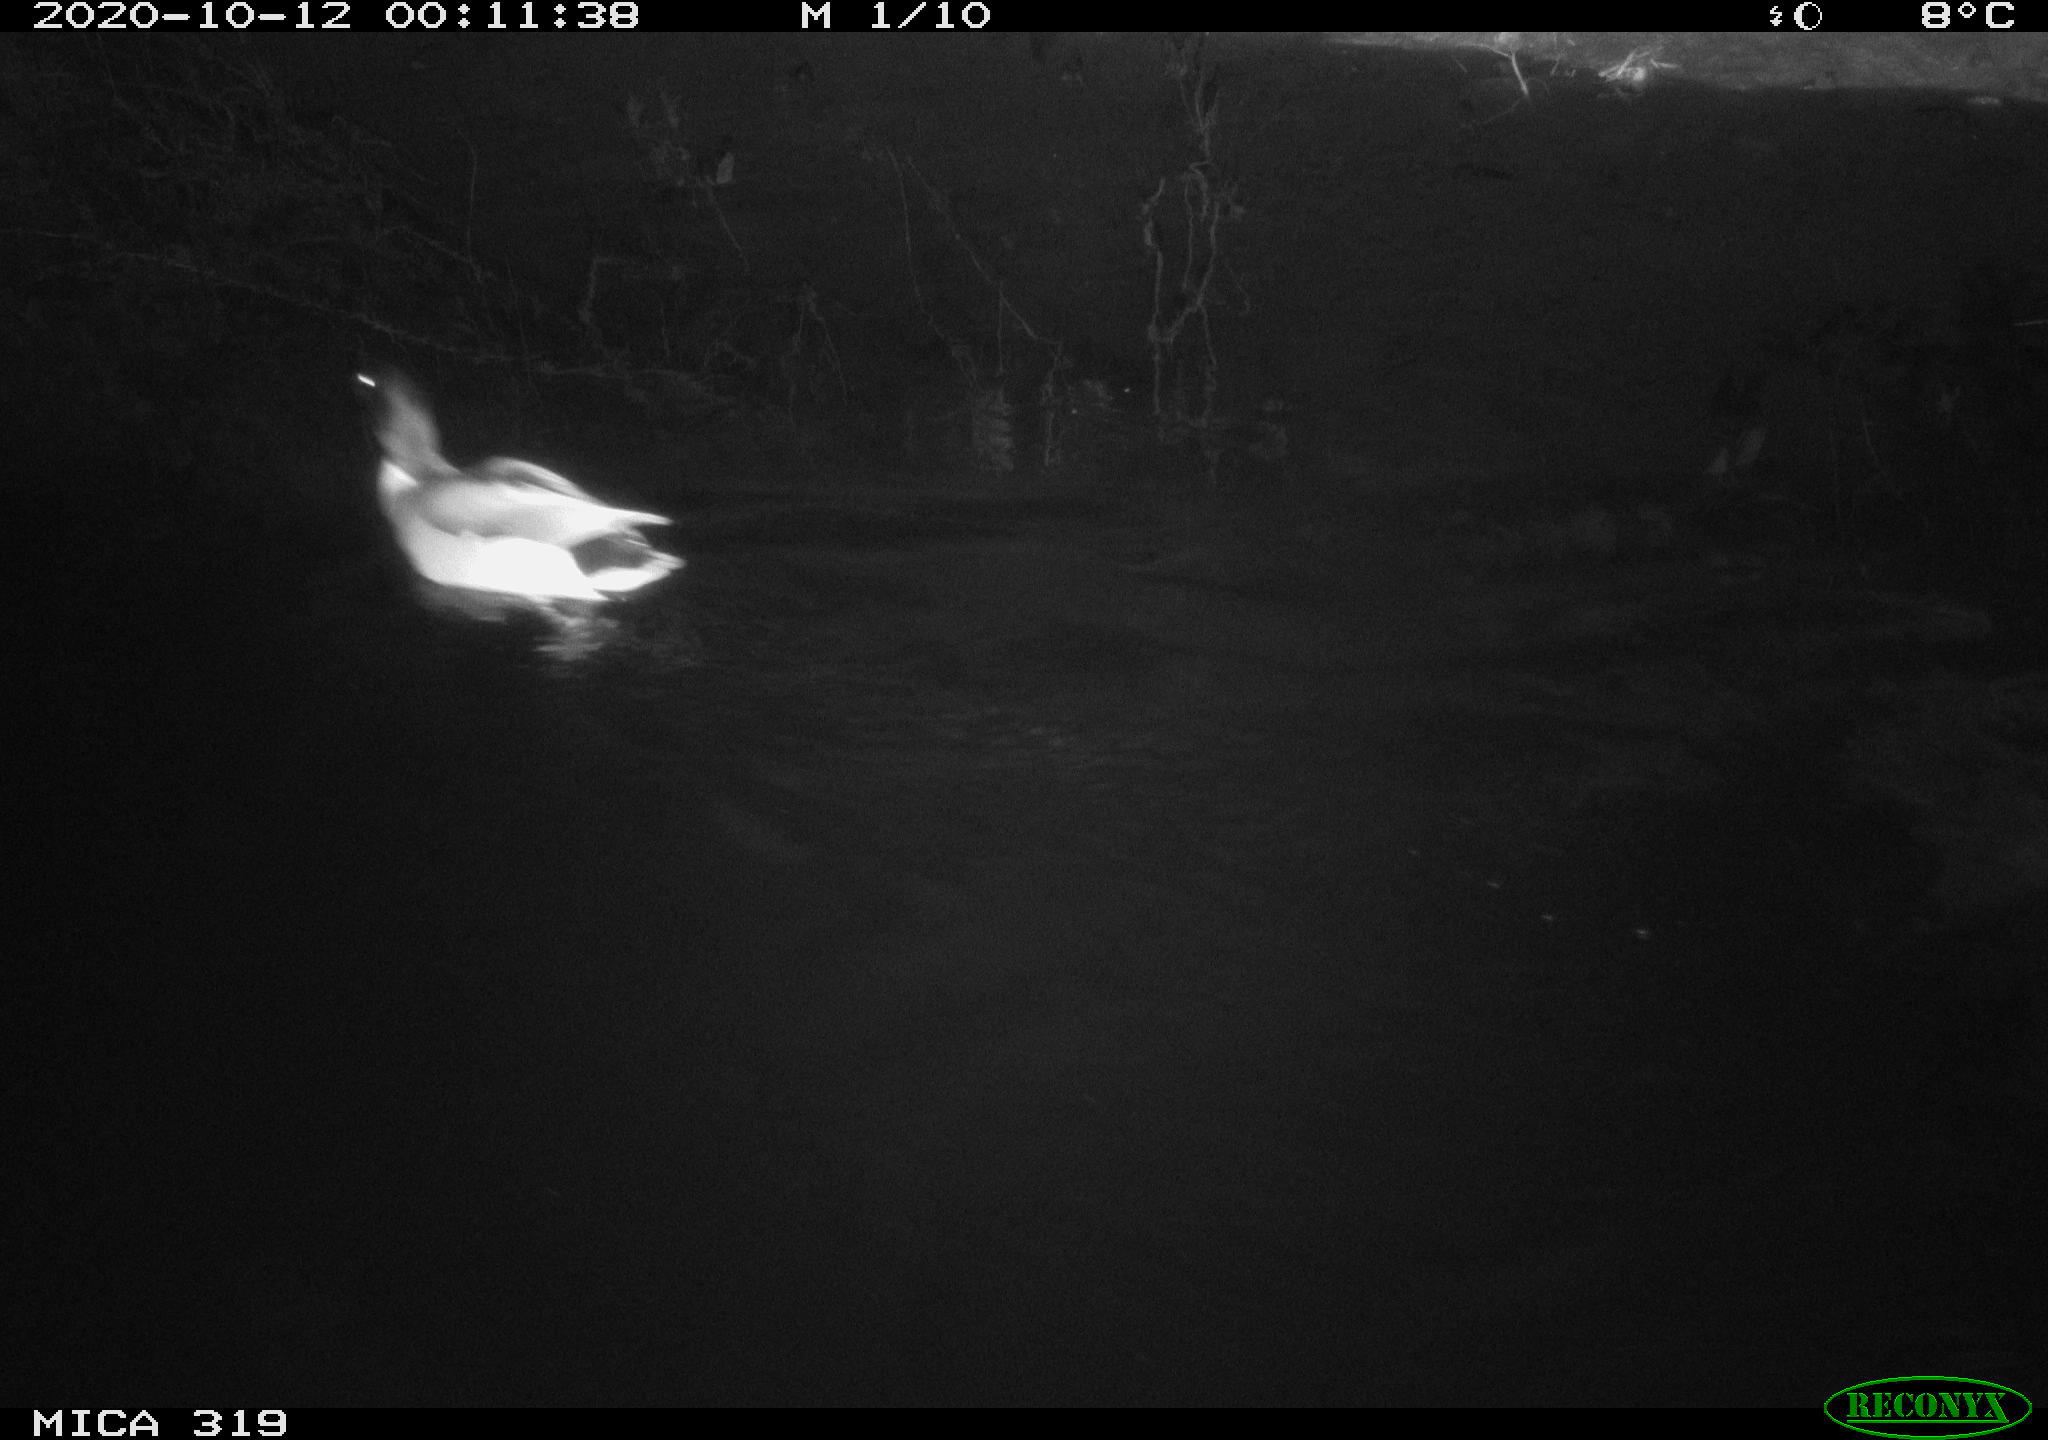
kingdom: Animalia
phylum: Chordata
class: Aves
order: Anseriformes
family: Anatidae
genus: Anas
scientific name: Anas platyrhynchos
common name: Mallard
